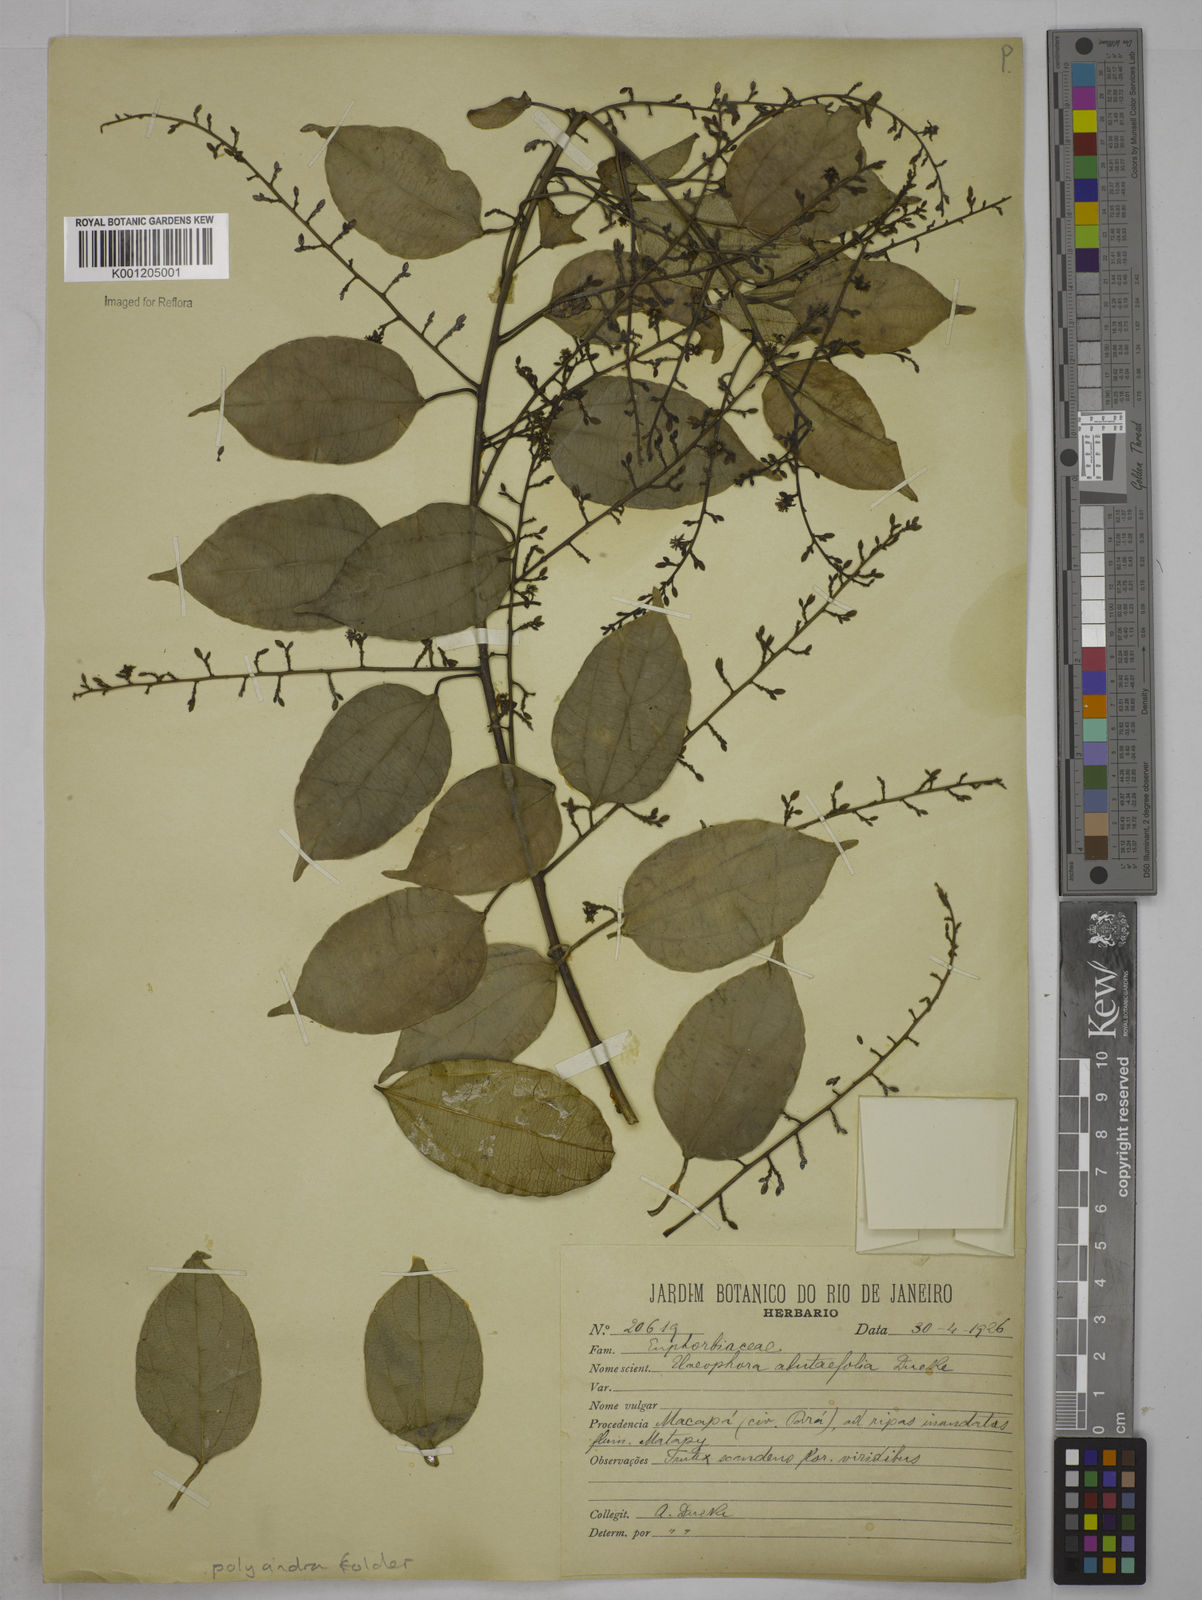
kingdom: Plantae
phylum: Tracheophyta
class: Magnoliopsida
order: Malpighiales
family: Euphorbiaceae
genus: Plukenetia
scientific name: Plukenetia
